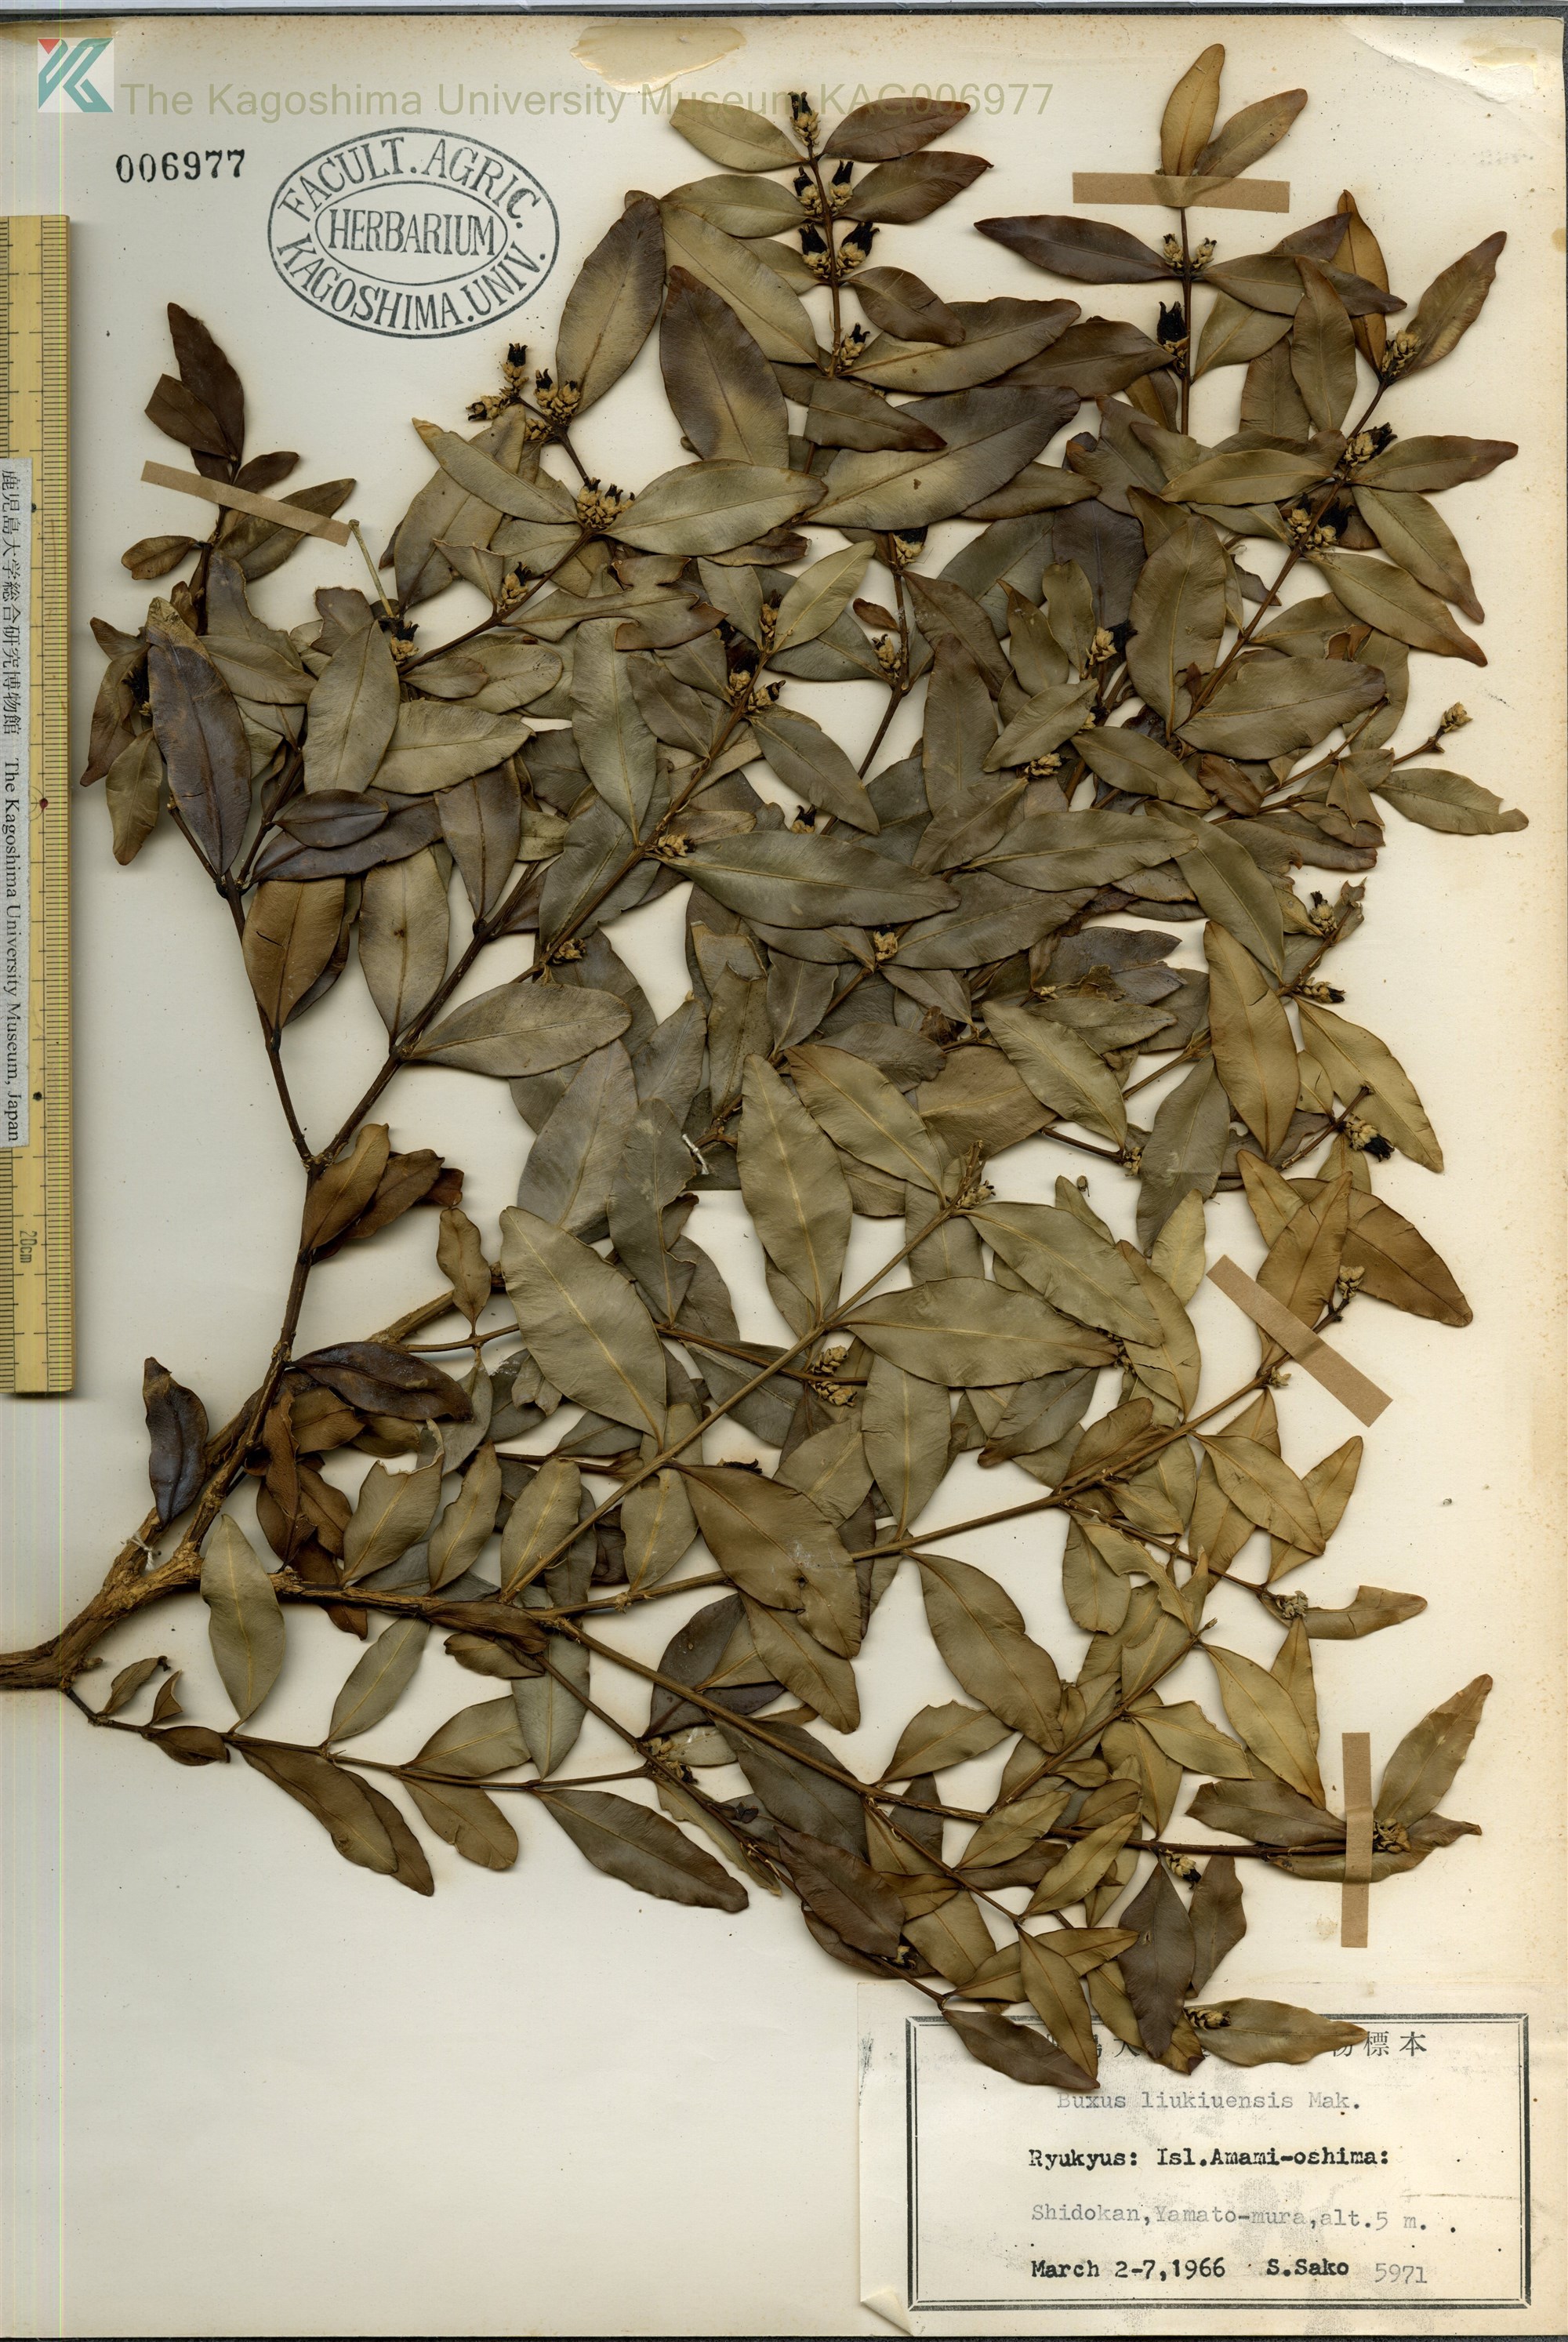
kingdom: Plantae
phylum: Tracheophyta
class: Magnoliopsida
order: Buxales
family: Buxaceae
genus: Buxus
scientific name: Buxus liukiuensis
